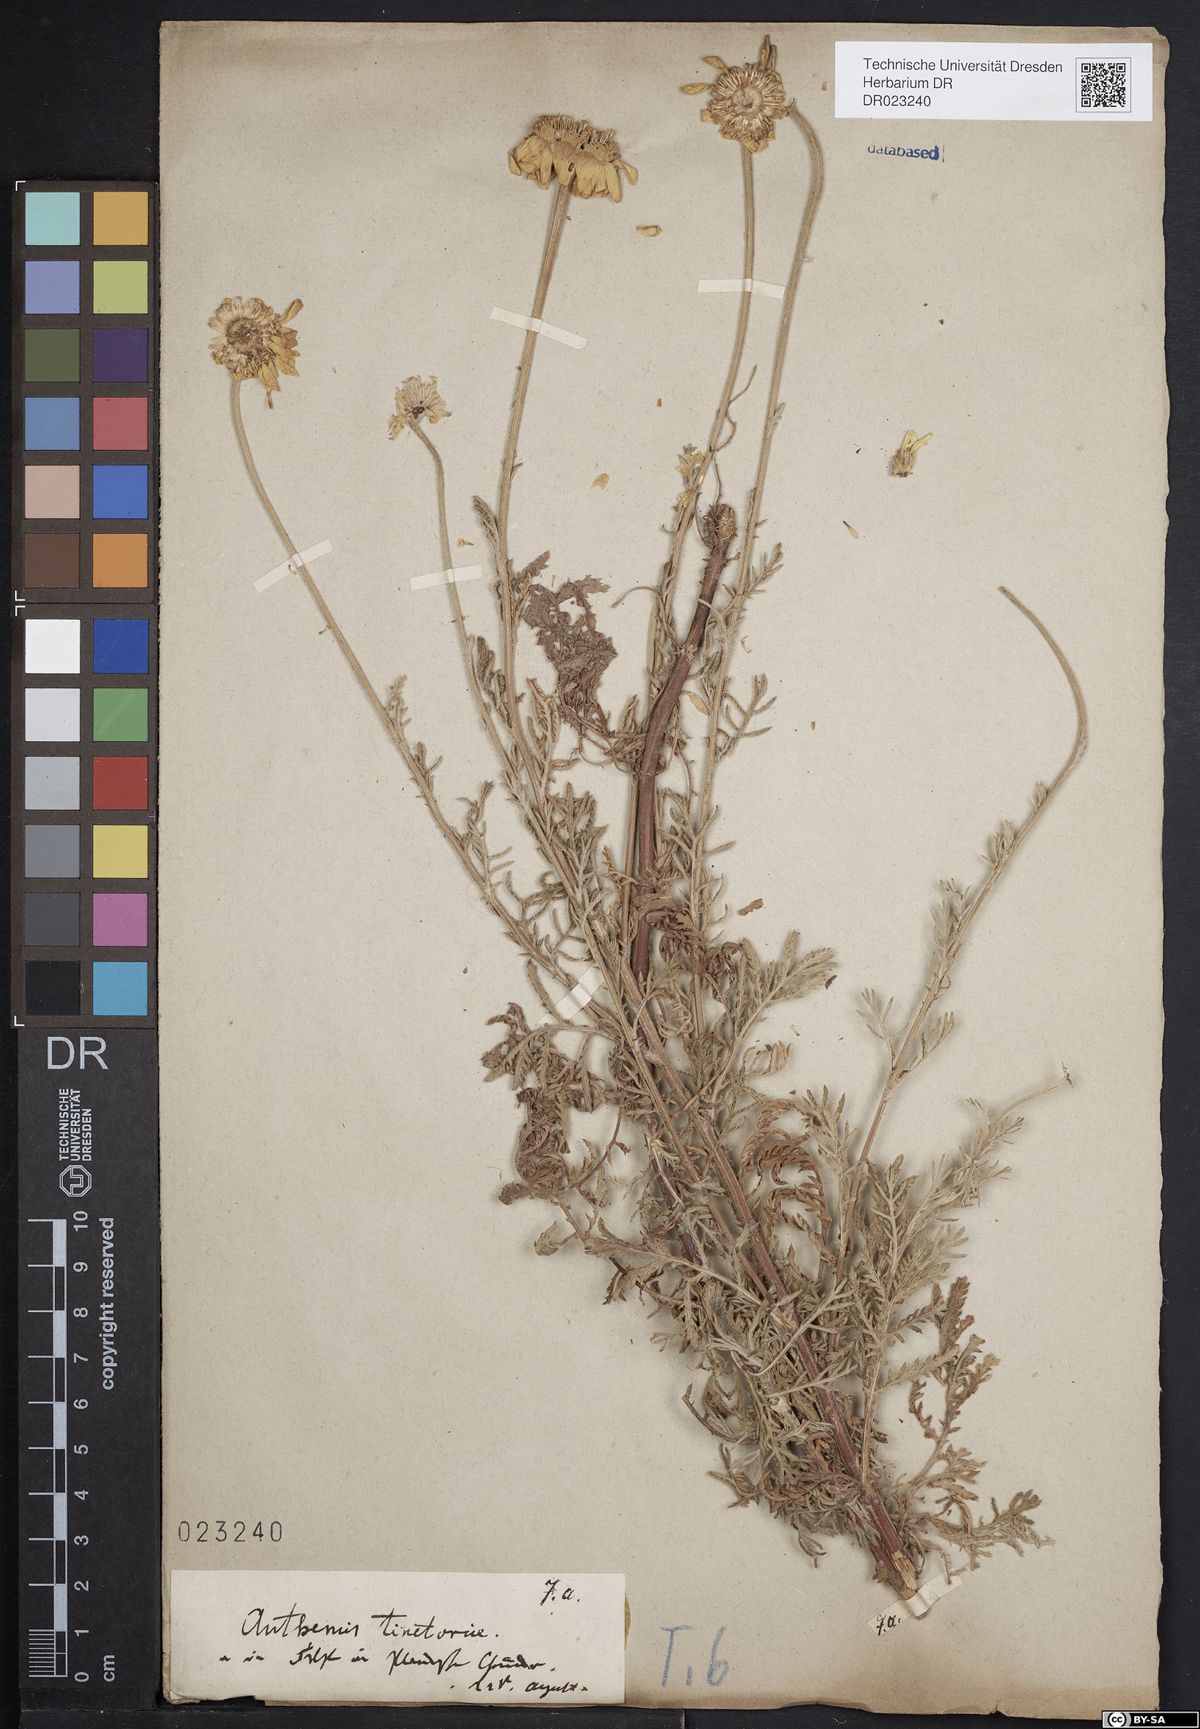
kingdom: Plantae
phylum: Tracheophyta
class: Magnoliopsida
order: Asterales
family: Asteraceae
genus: Cota
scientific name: Cota tinctoria
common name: Golden chamomile
